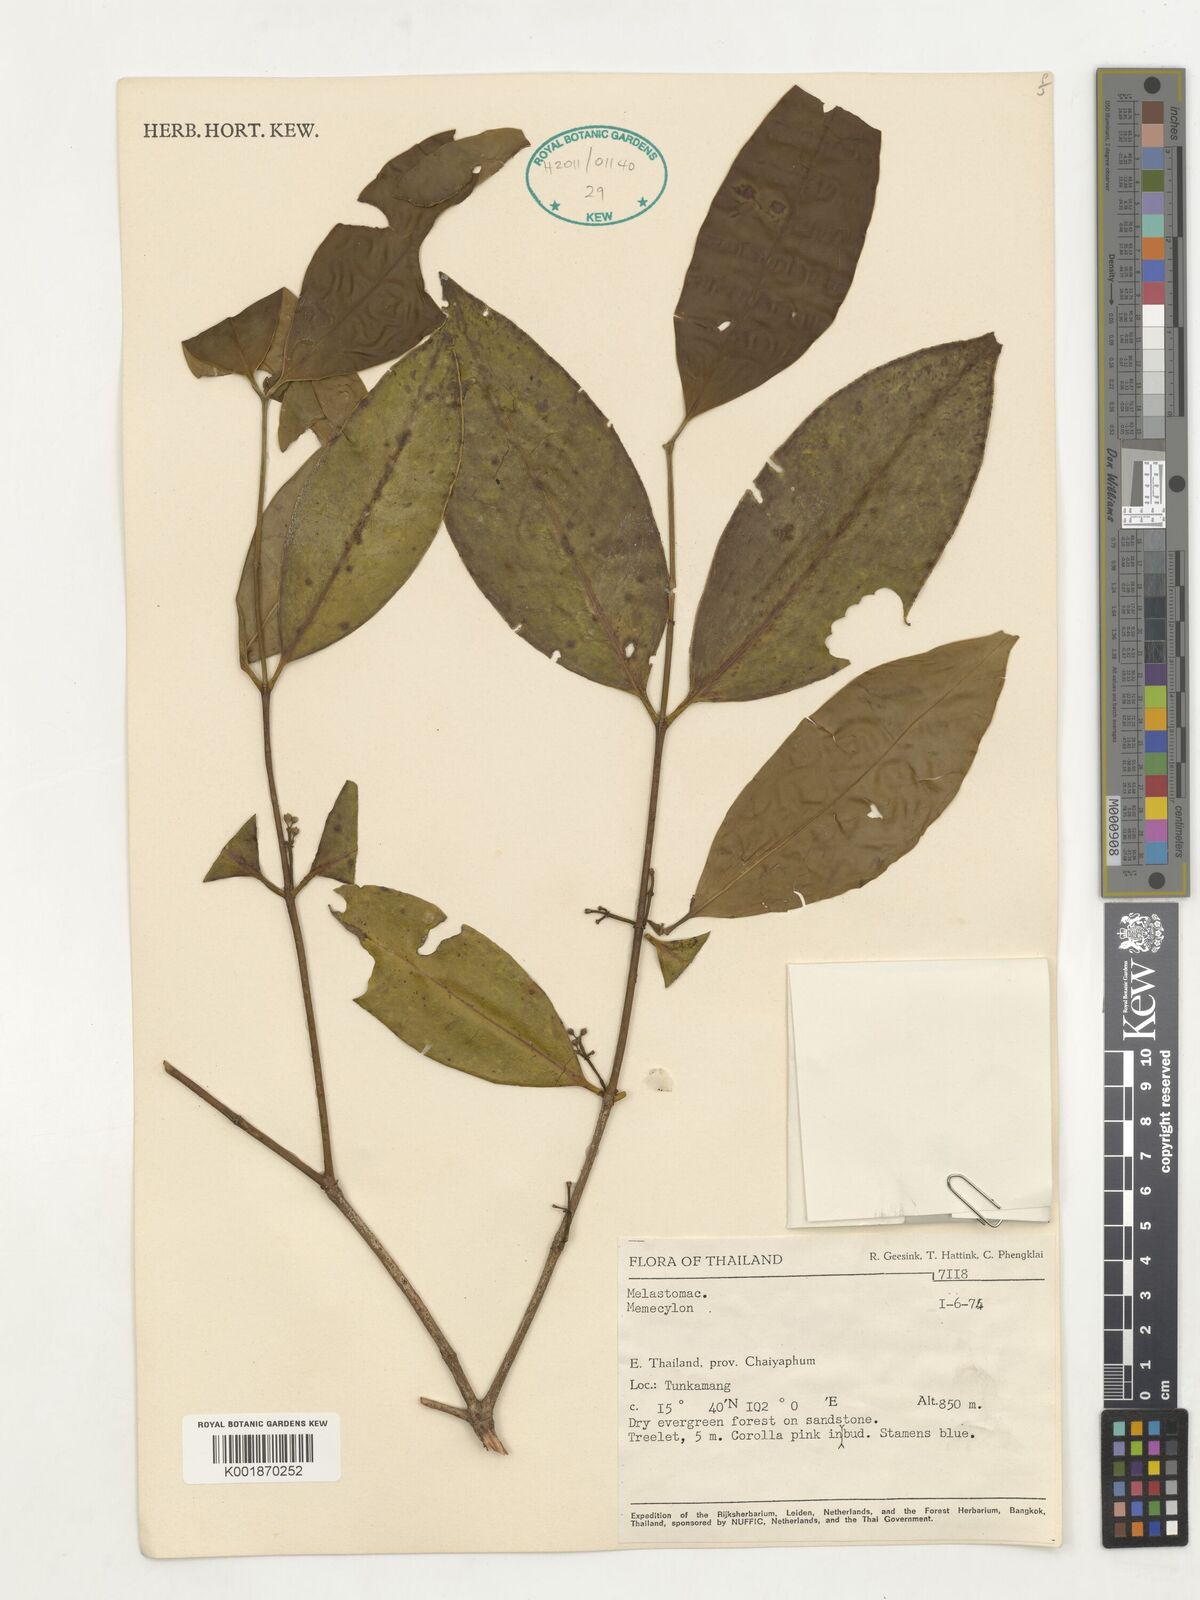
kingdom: Plantae
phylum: Tracheophyta
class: Magnoliopsida
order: Myrtales
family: Melastomataceae
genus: Memecylon
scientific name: Memecylon
